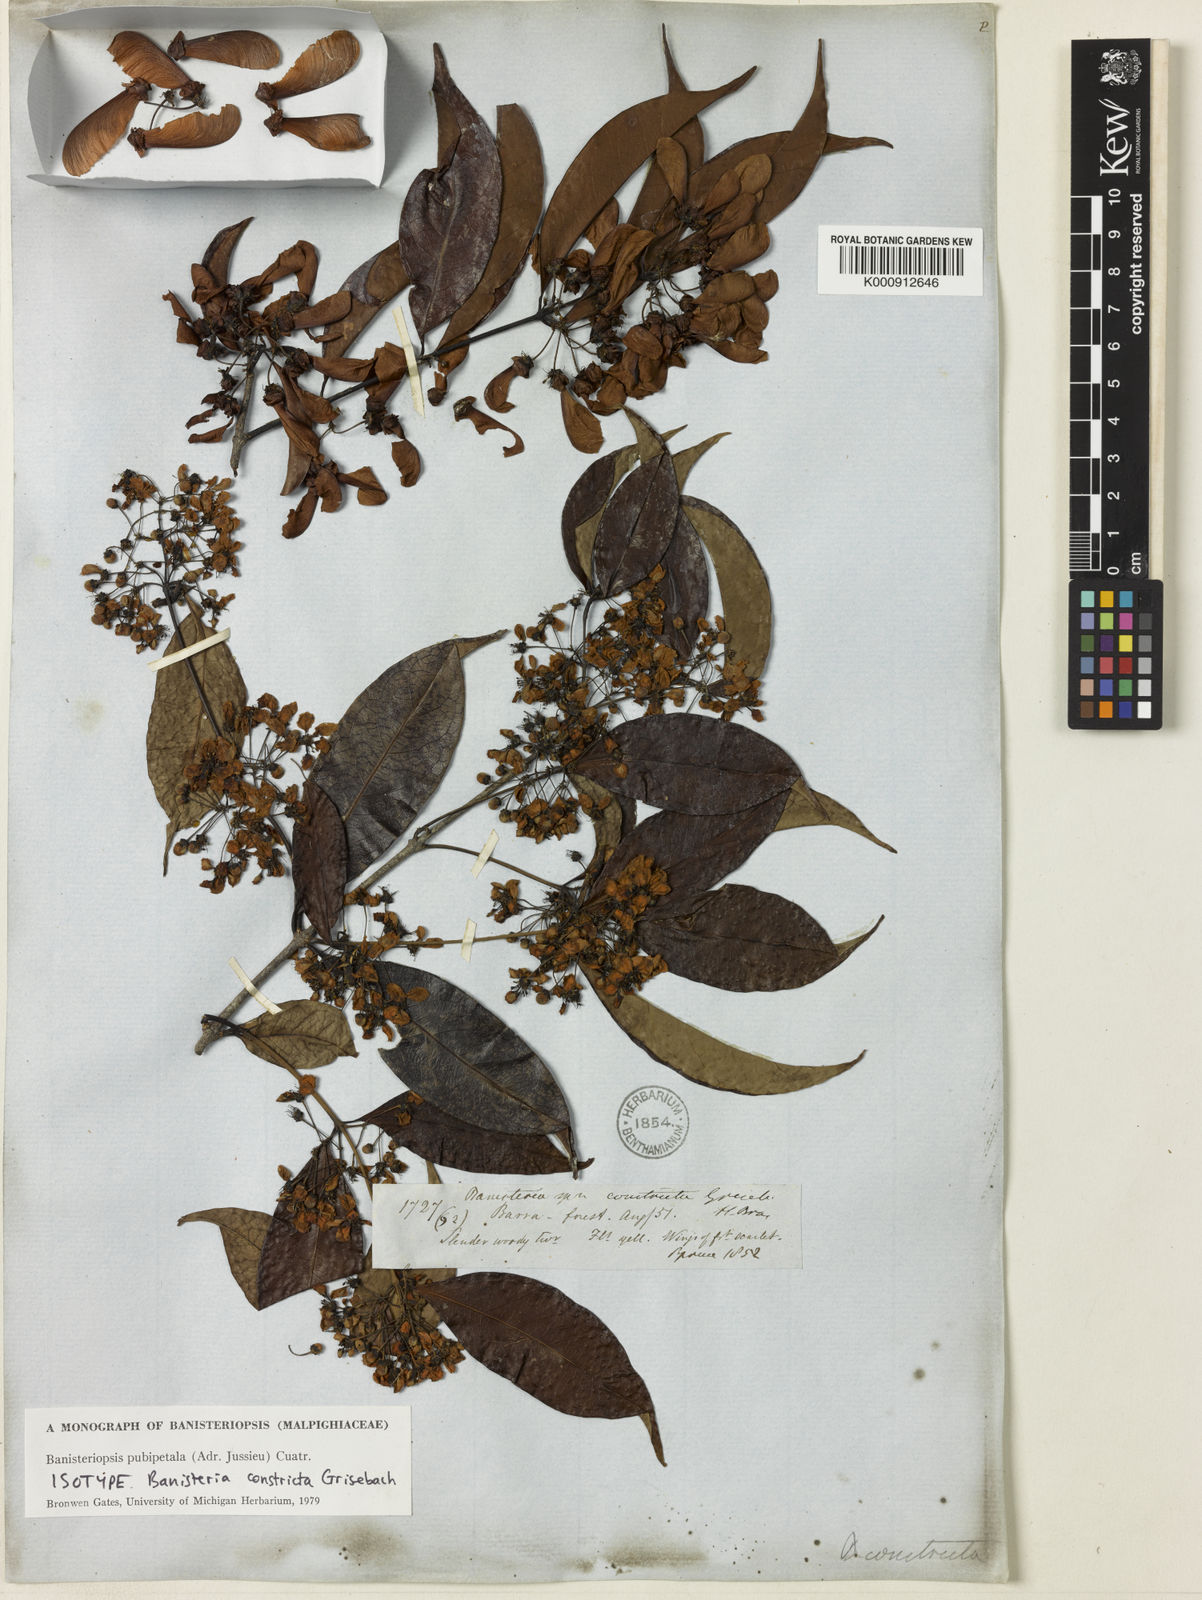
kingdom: Plantae
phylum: Tracheophyta
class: Magnoliopsida
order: Malpighiales
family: Malpighiaceae
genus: Diplopterys
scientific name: Diplopterys pubipetala
